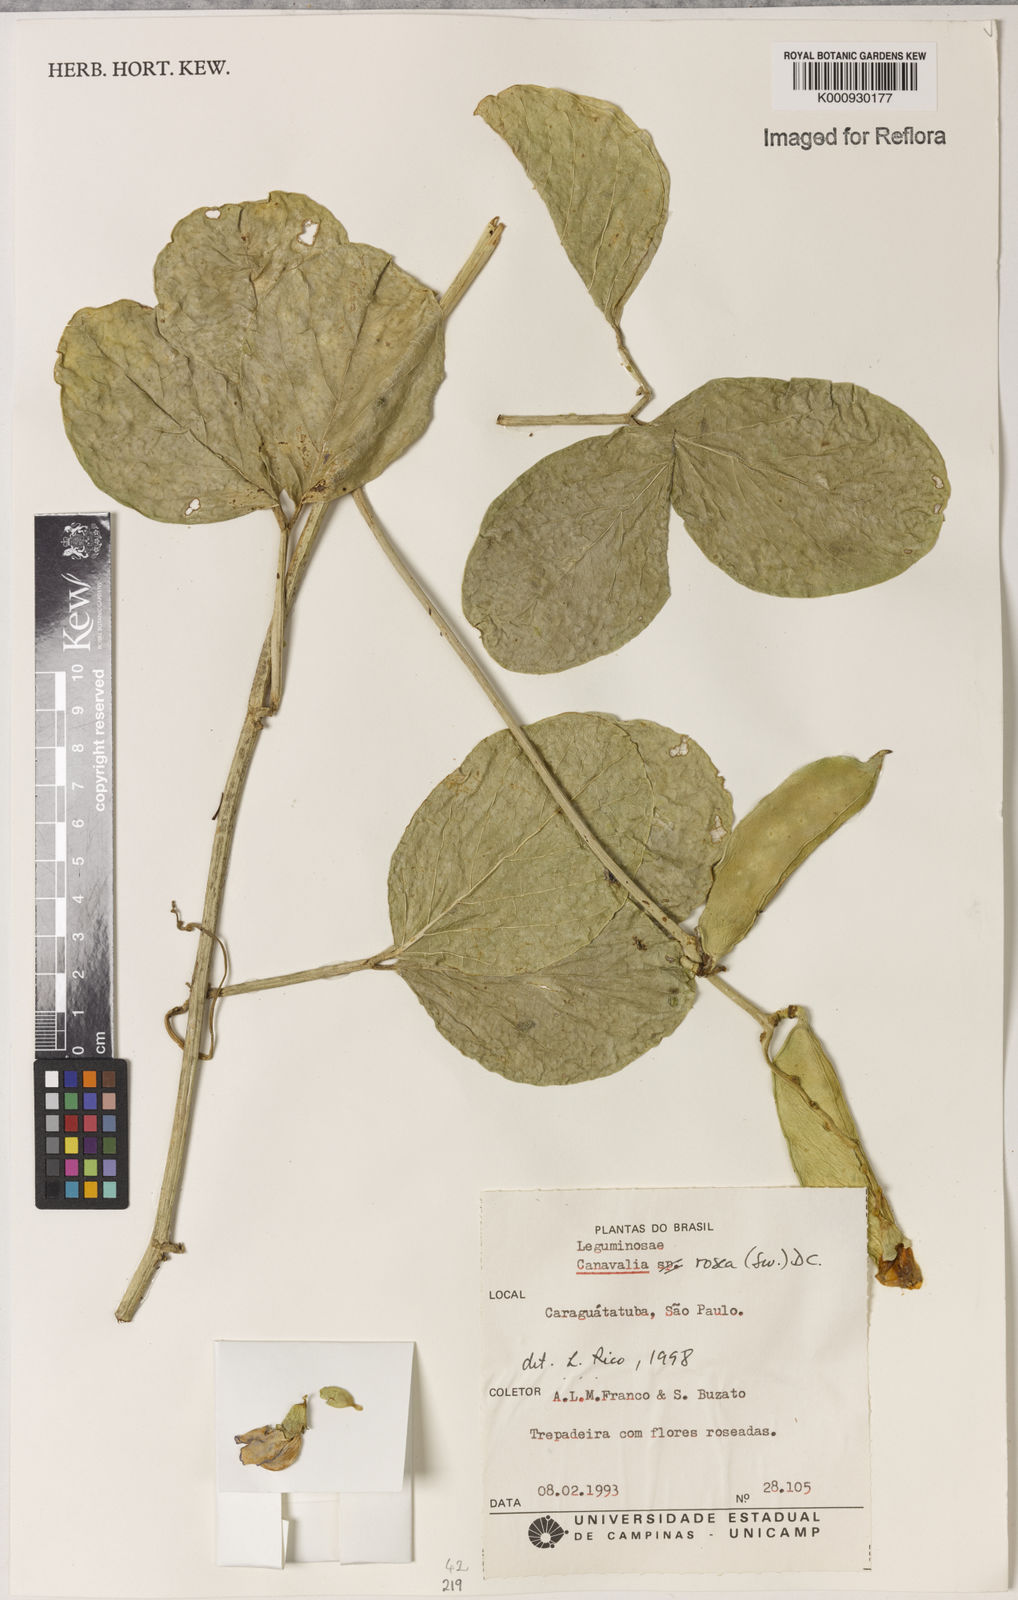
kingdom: Plantae
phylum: Tracheophyta
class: Magnoliopsida
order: Fabales
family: Fabaceae
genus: Canavalia
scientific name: Canavalia rosea
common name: Beach-bean
